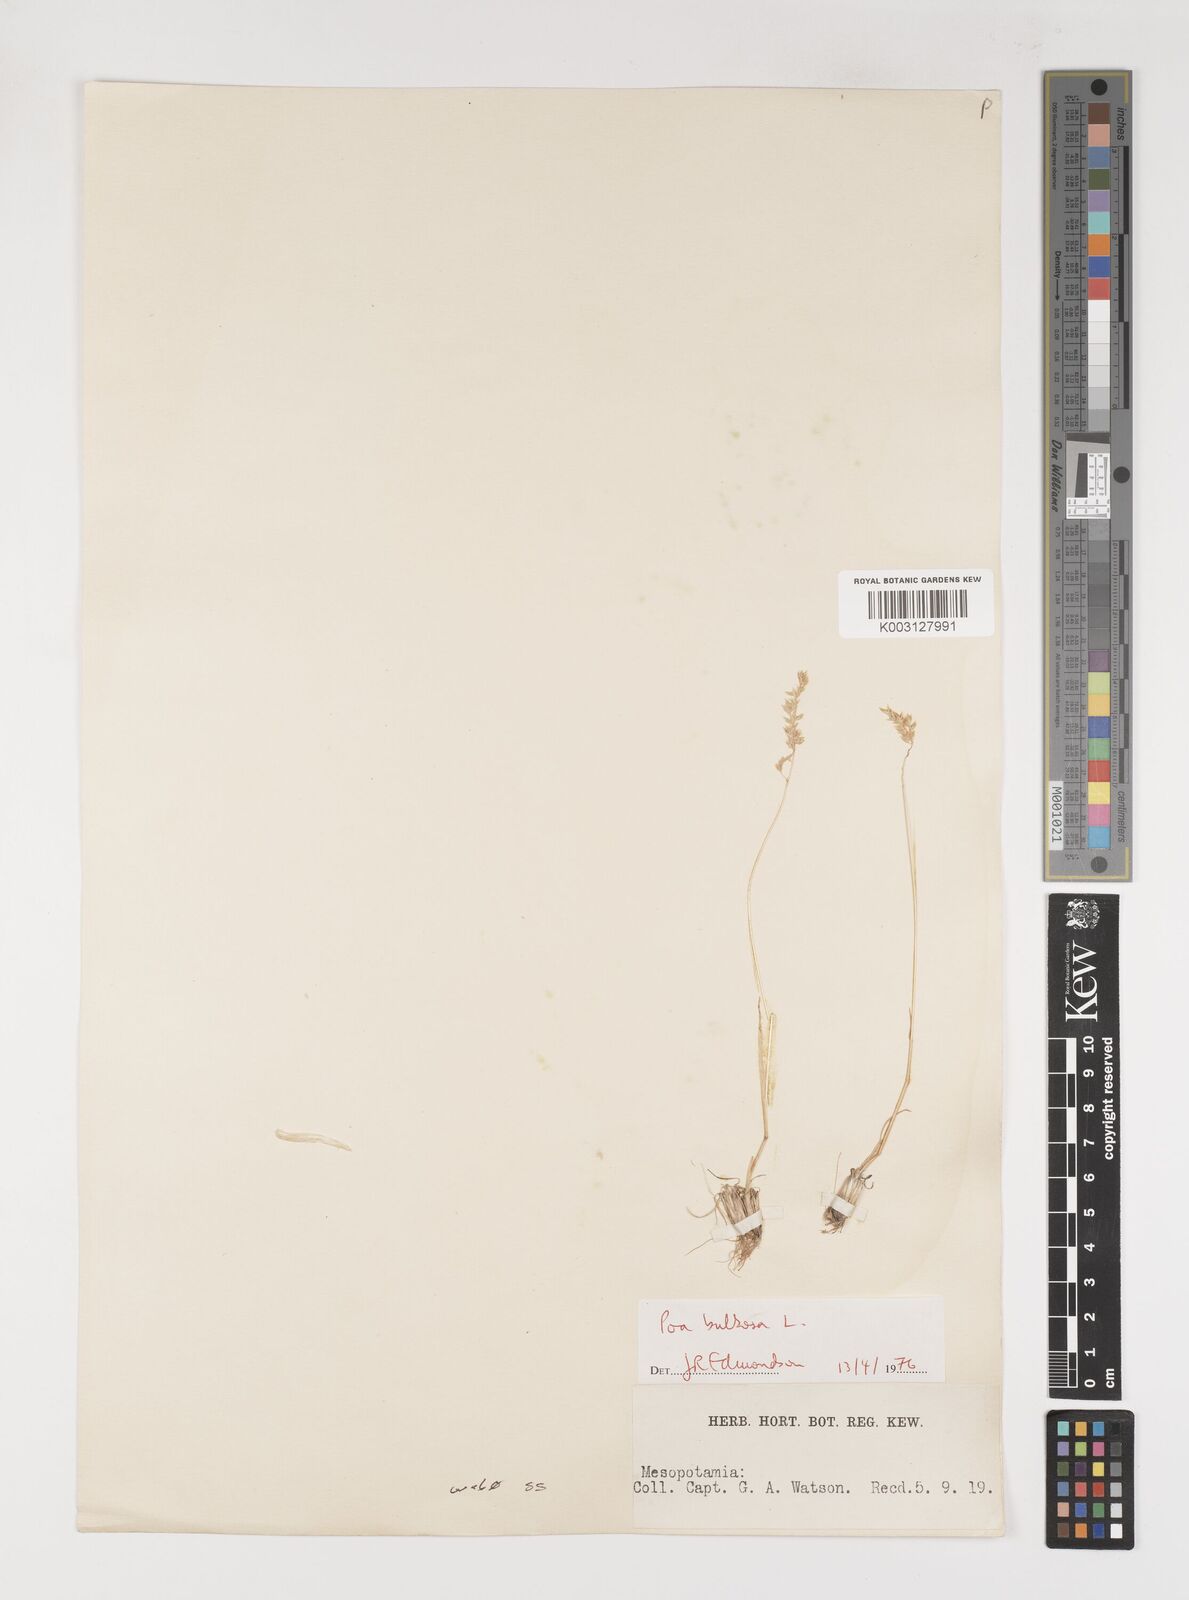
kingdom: Plantae
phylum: Tracheophyta
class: Liliopsida
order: Poales
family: Poaceae
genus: Poa
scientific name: Poa bulbosa
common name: Bulbous bluegrass
